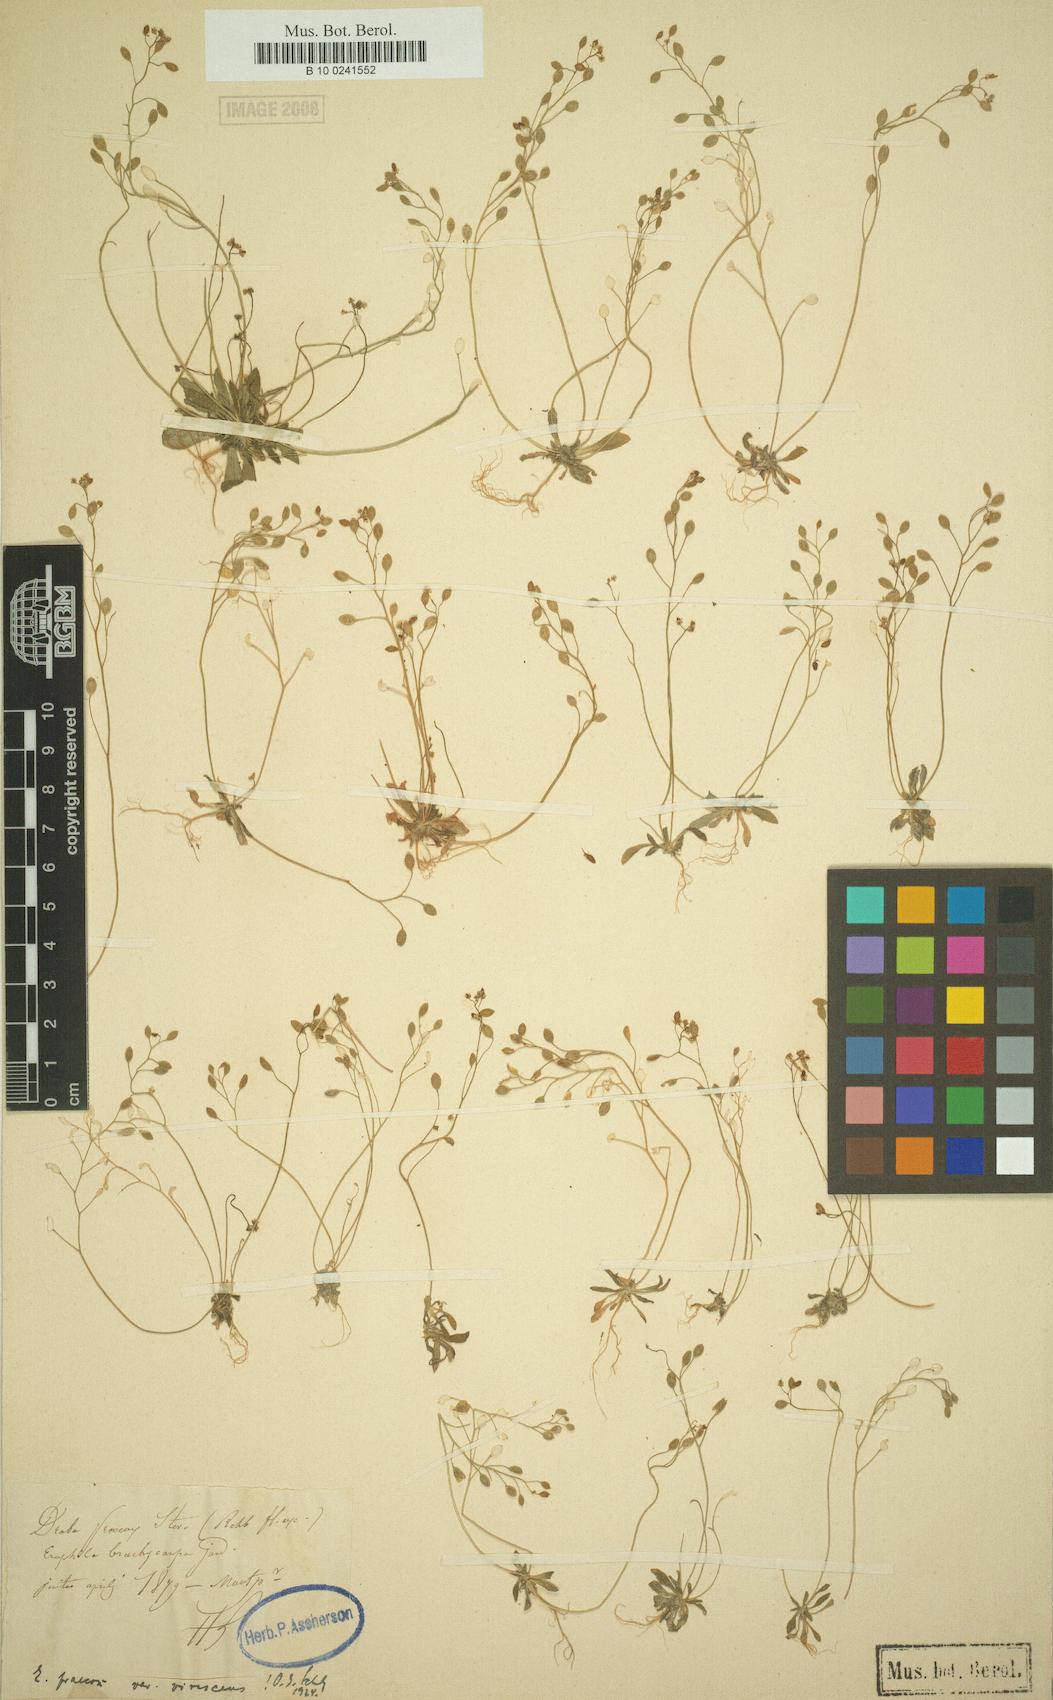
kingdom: Plantae
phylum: Tracheophyta
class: Magnoliopsida
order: Brassicales
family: Brassicaceae
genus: Draba
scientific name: Draba verna
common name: Spring draba
